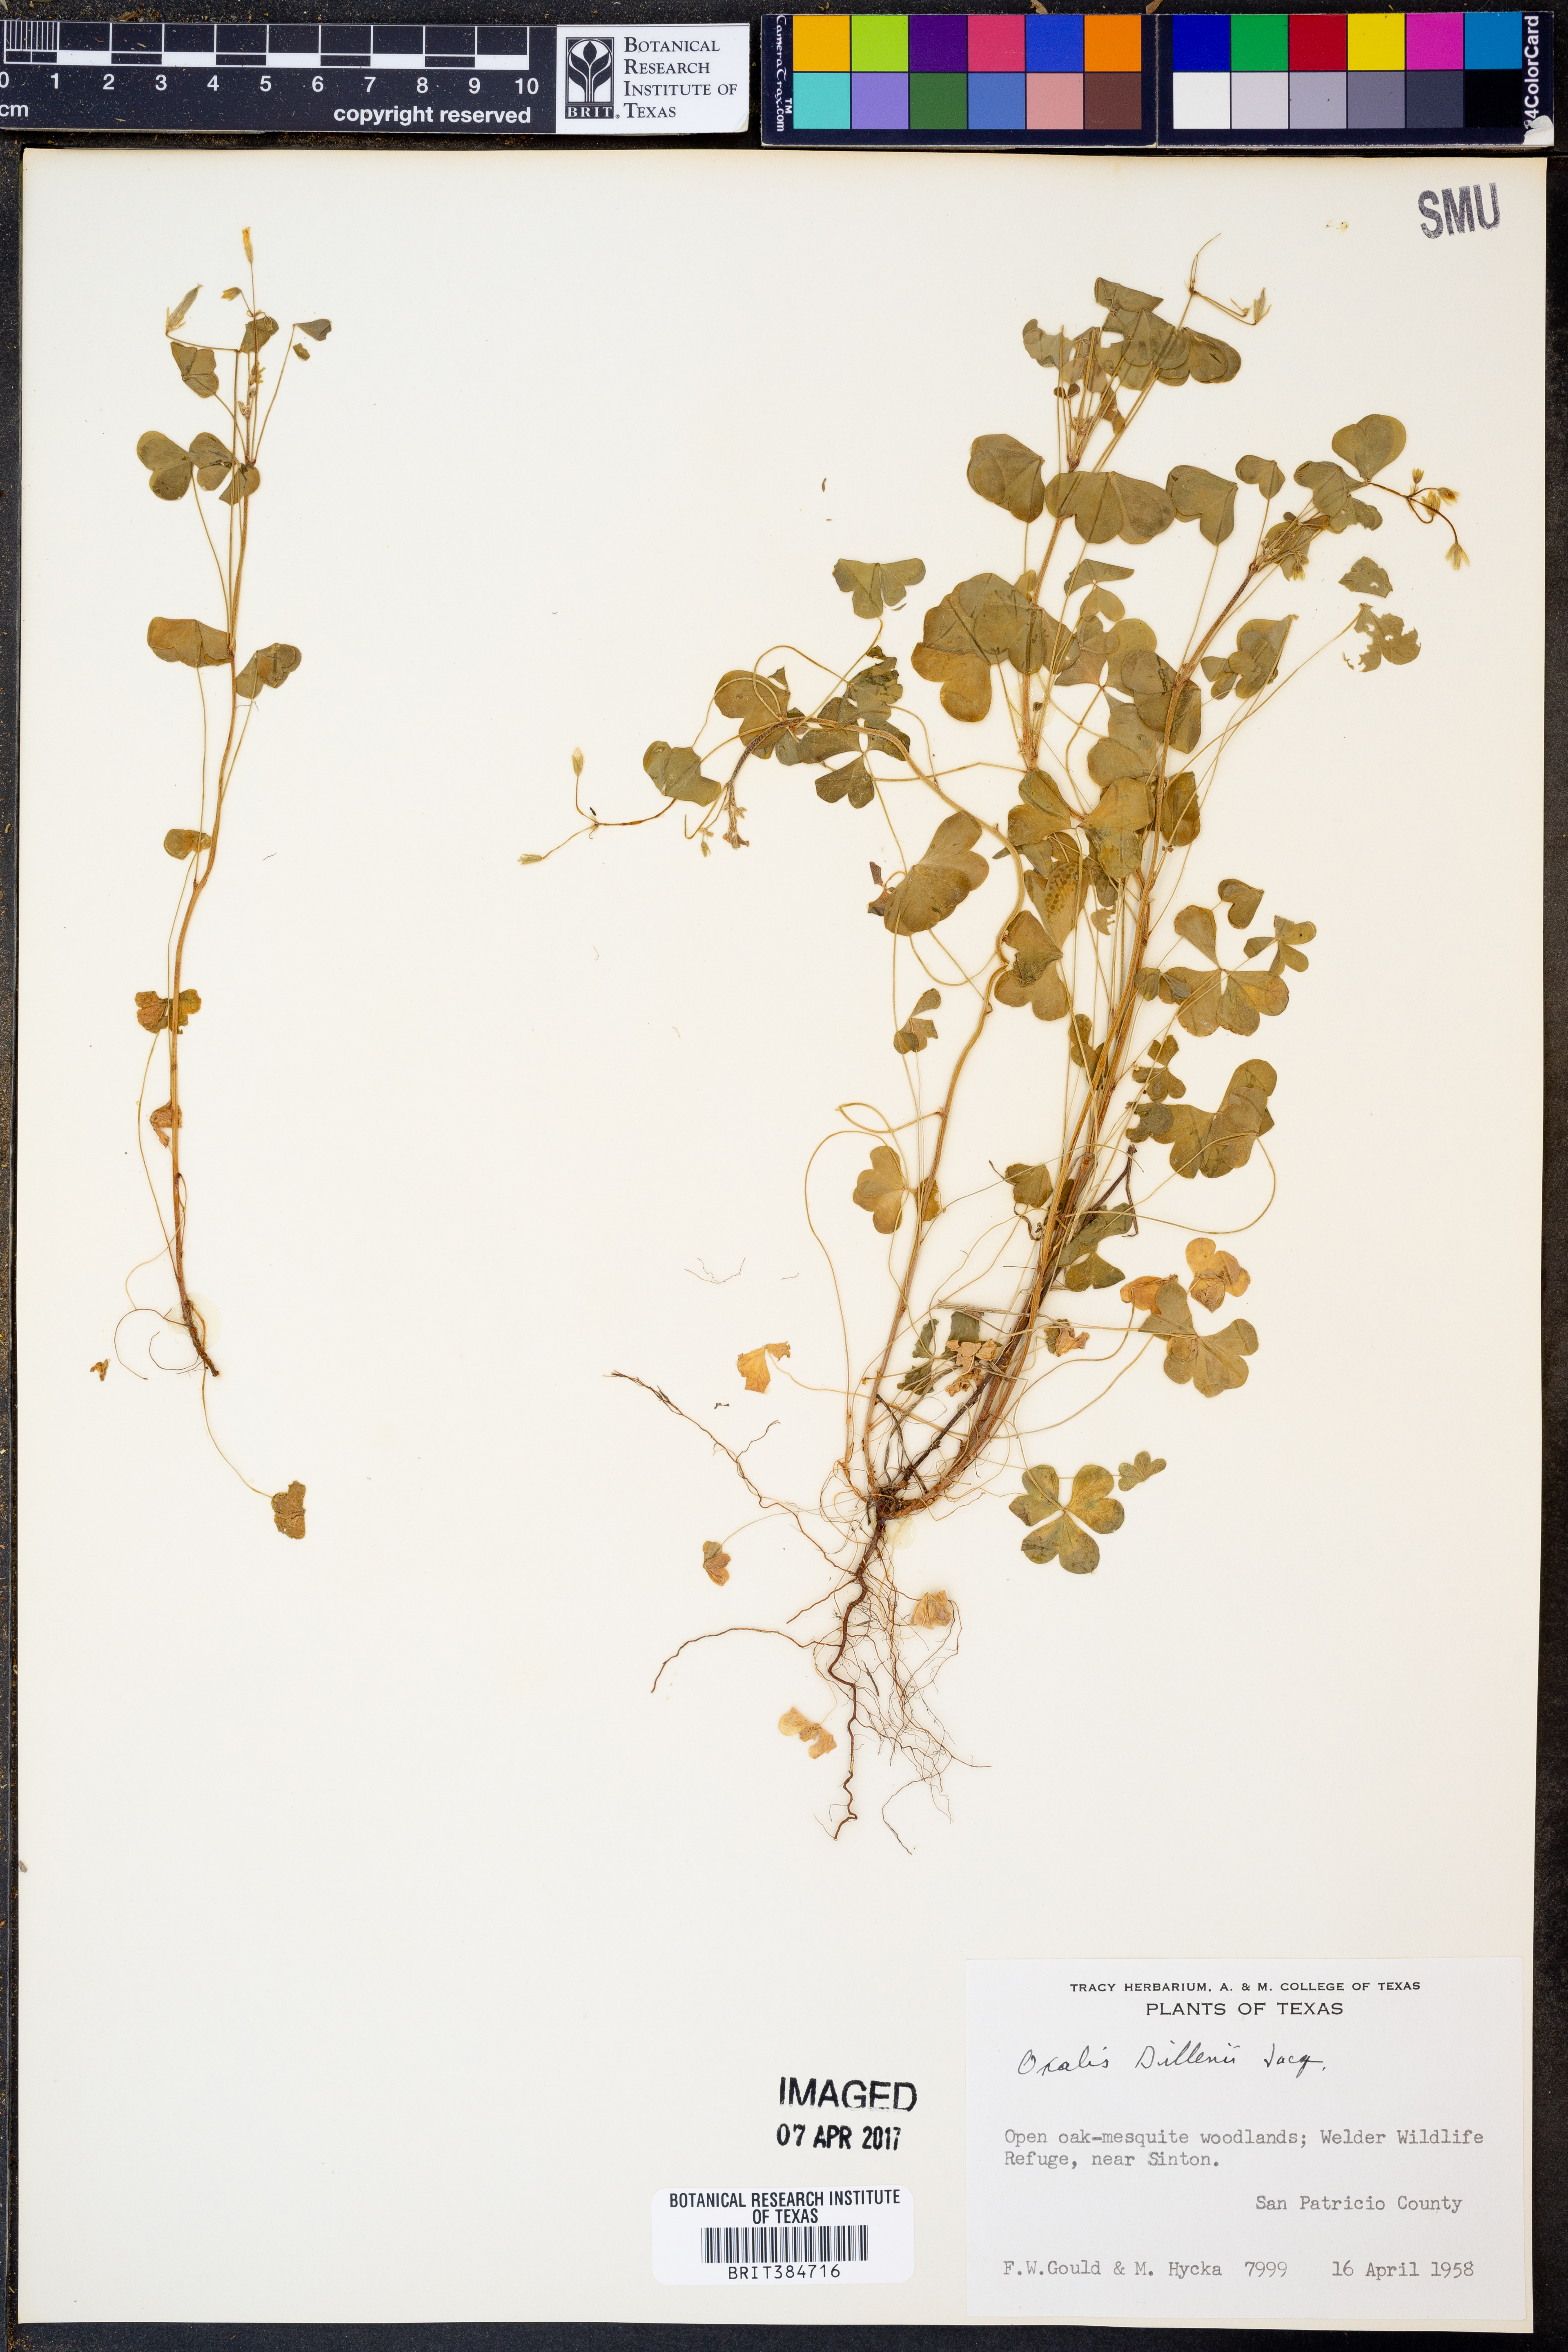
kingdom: Plantae
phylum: Tracheophyta
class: Magnoliopsida
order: Oxalidales
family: Oxalidaceae
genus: Oxalis
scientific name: Oxalis dillenii
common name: Sussex yellow-sorrel
